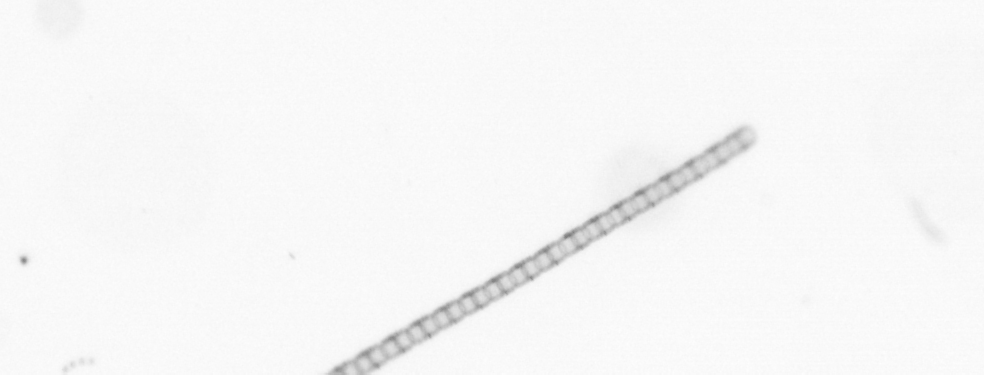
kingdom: Chromista
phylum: Ochrophyta
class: Bacillariophyceae
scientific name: Bacillariophyceae
